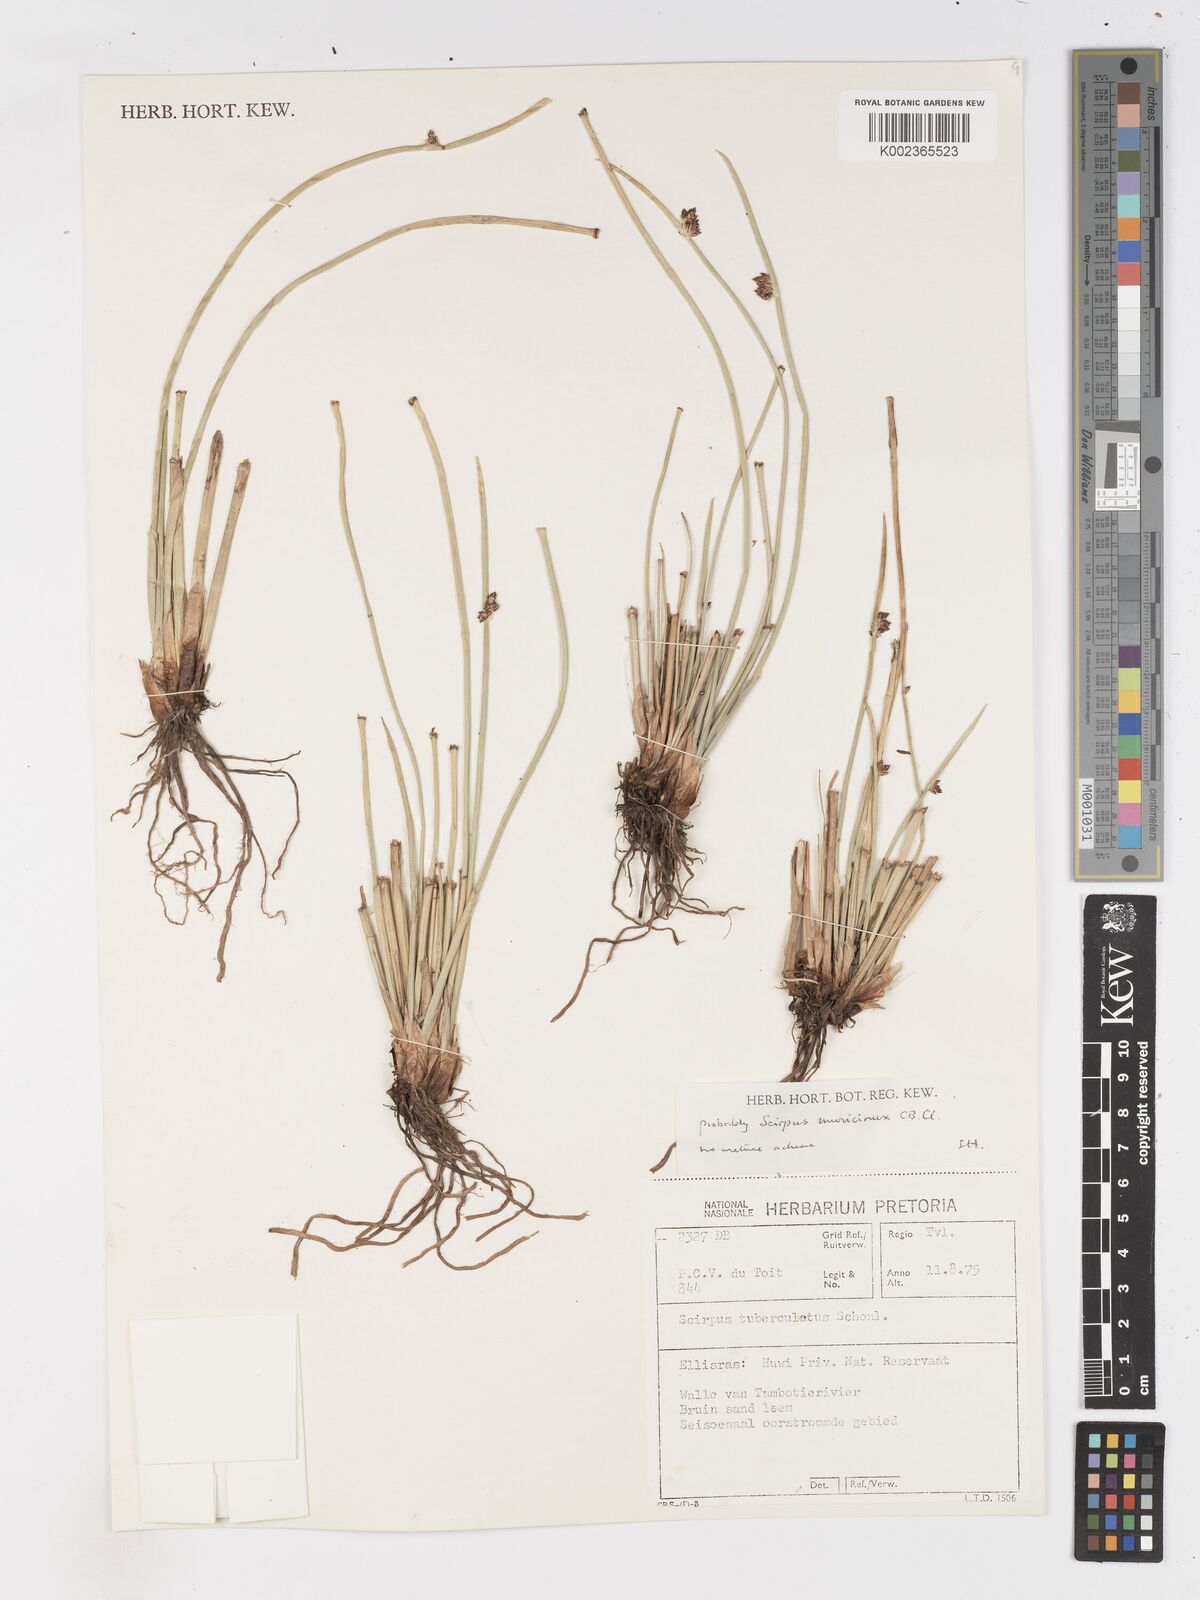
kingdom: Plantae
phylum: Tracheophyta
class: Liliopsida
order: Poales
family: Cyperaceae
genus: Schoenoplectiella
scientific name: Schoenoplectiella muricinux
